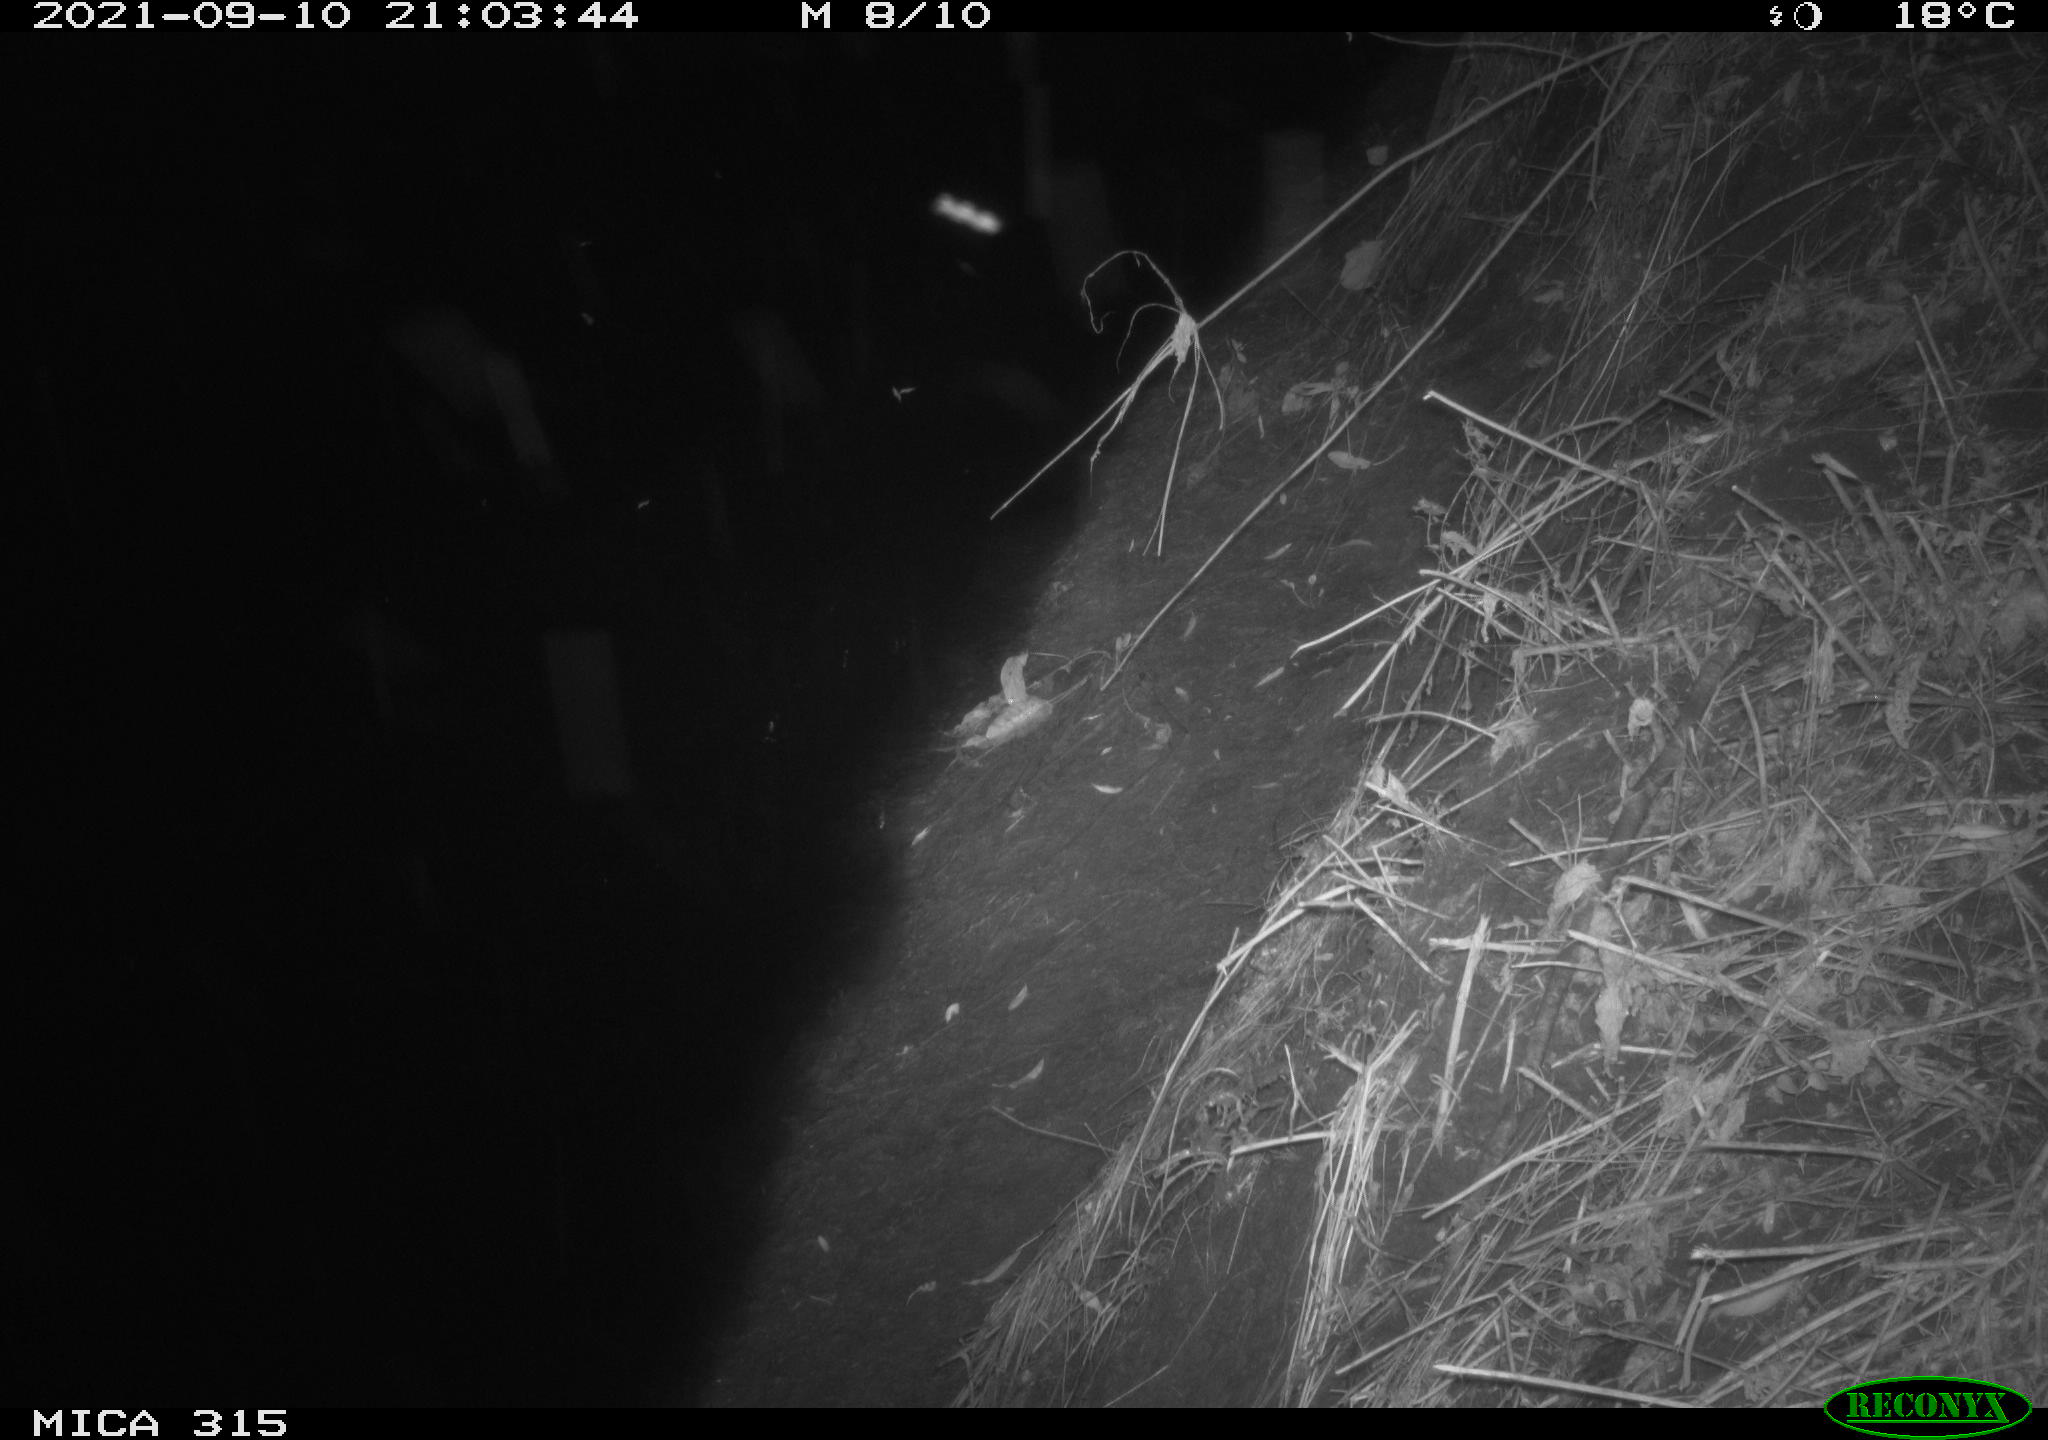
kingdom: Animalia
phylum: Chordata
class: Aves
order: Anseriformes
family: Anatidae
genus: Anas
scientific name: Anas platyrhynchos
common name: Mallard
